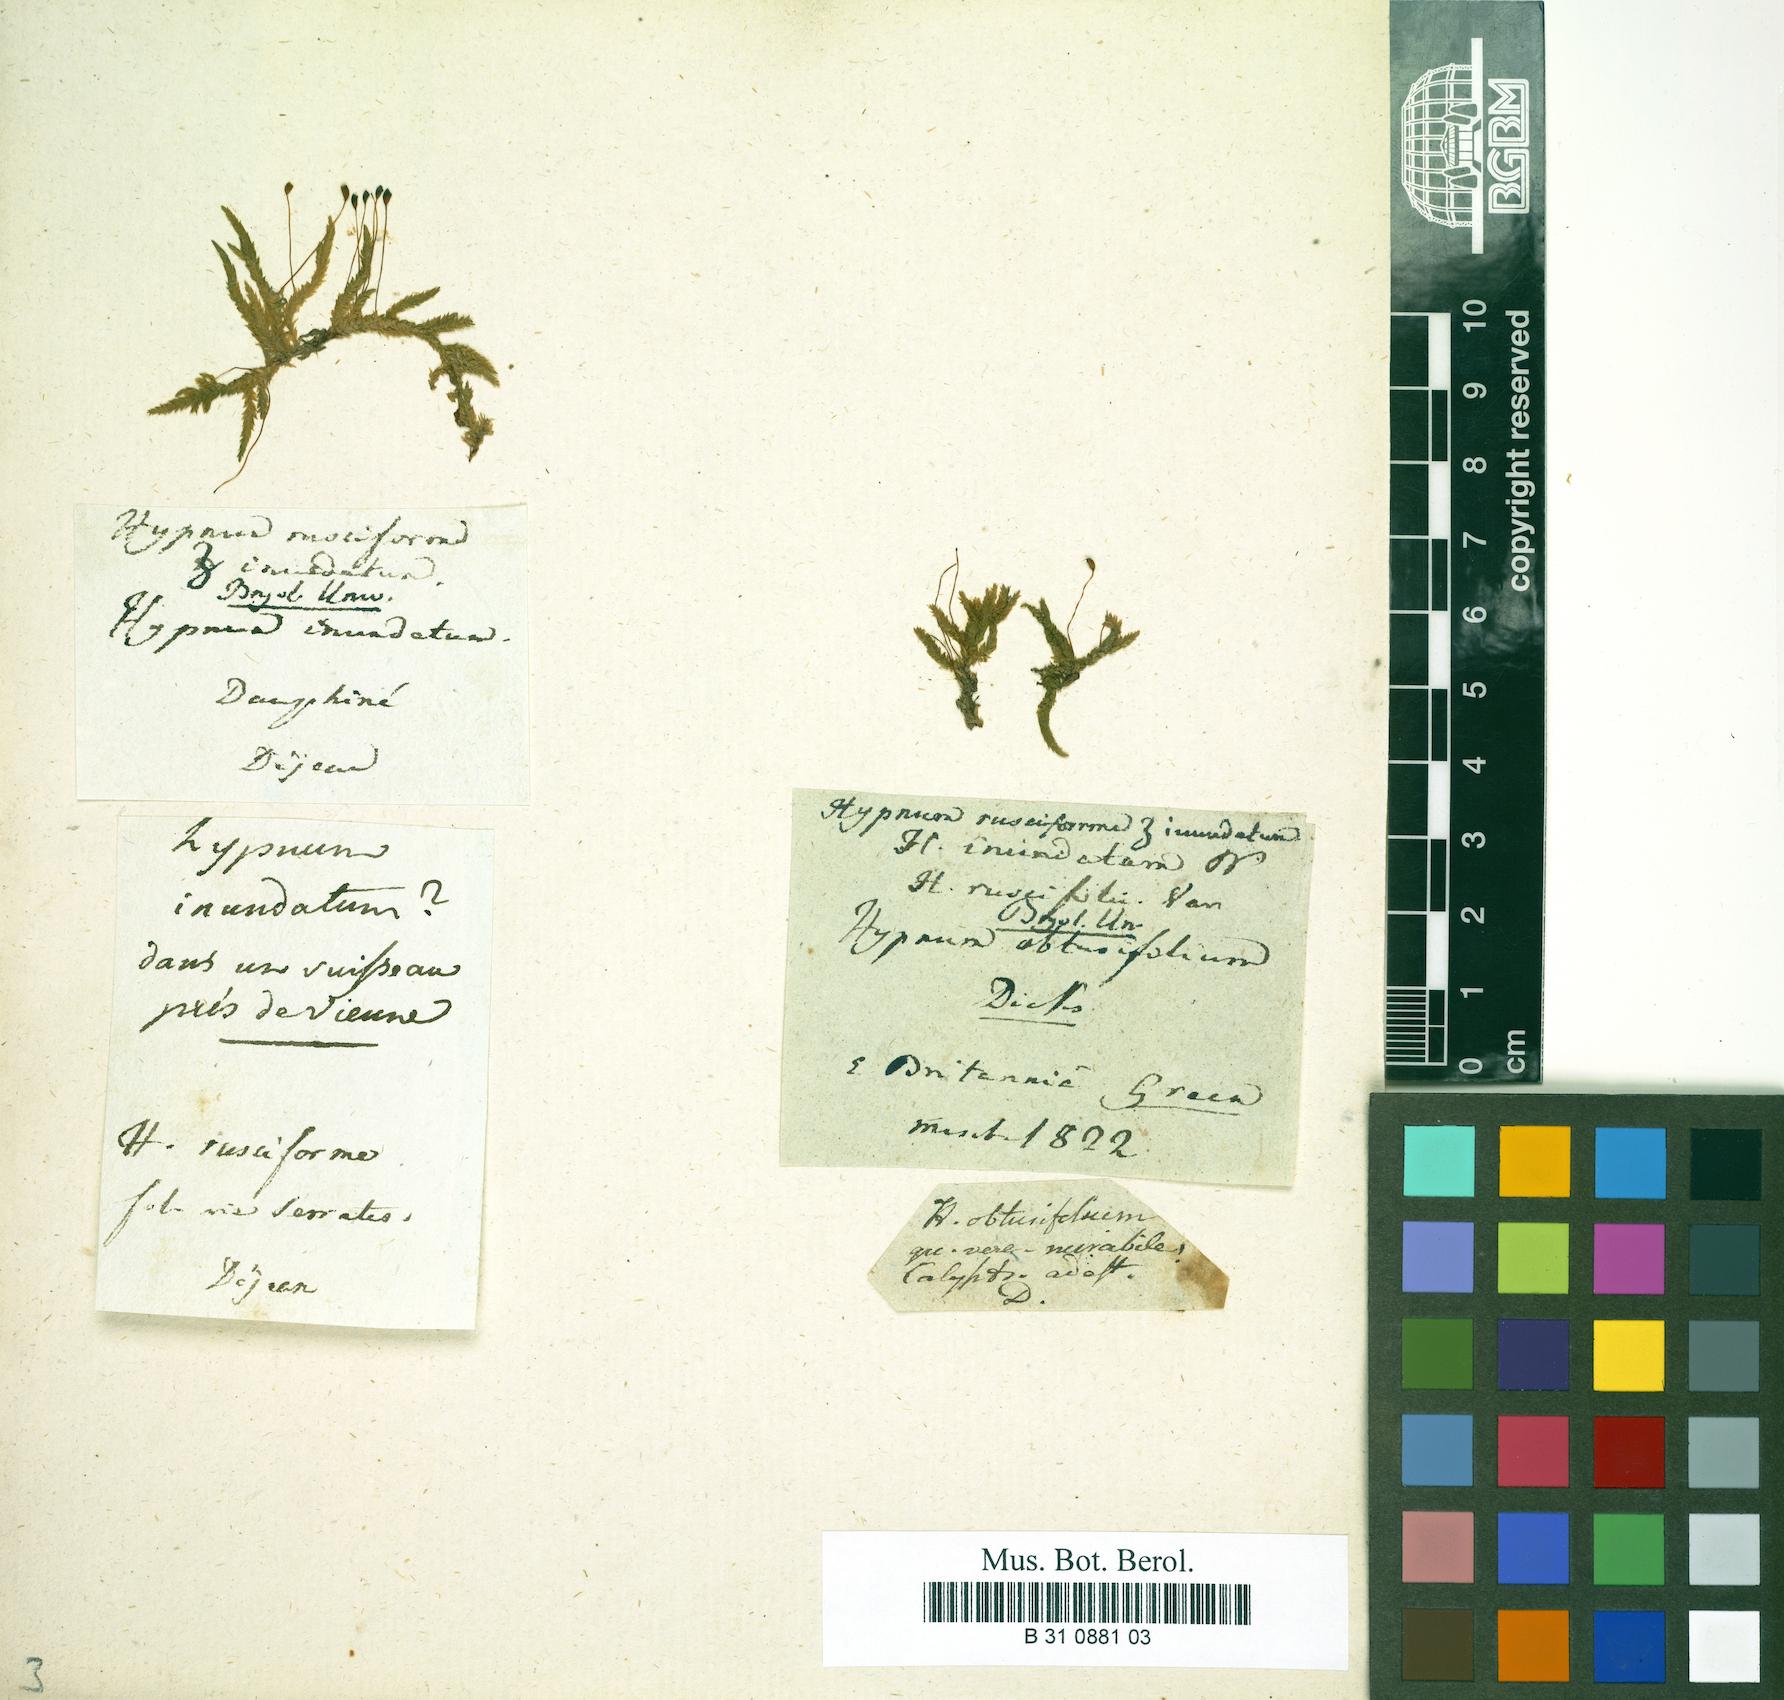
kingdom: Plantae
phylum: Bryophyta
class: Bryopsida
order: Hypnales
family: Brachytheciaceae
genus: Rhynchostegium
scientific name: Rhynchostegium riparioides
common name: Platyhypnidium moss
